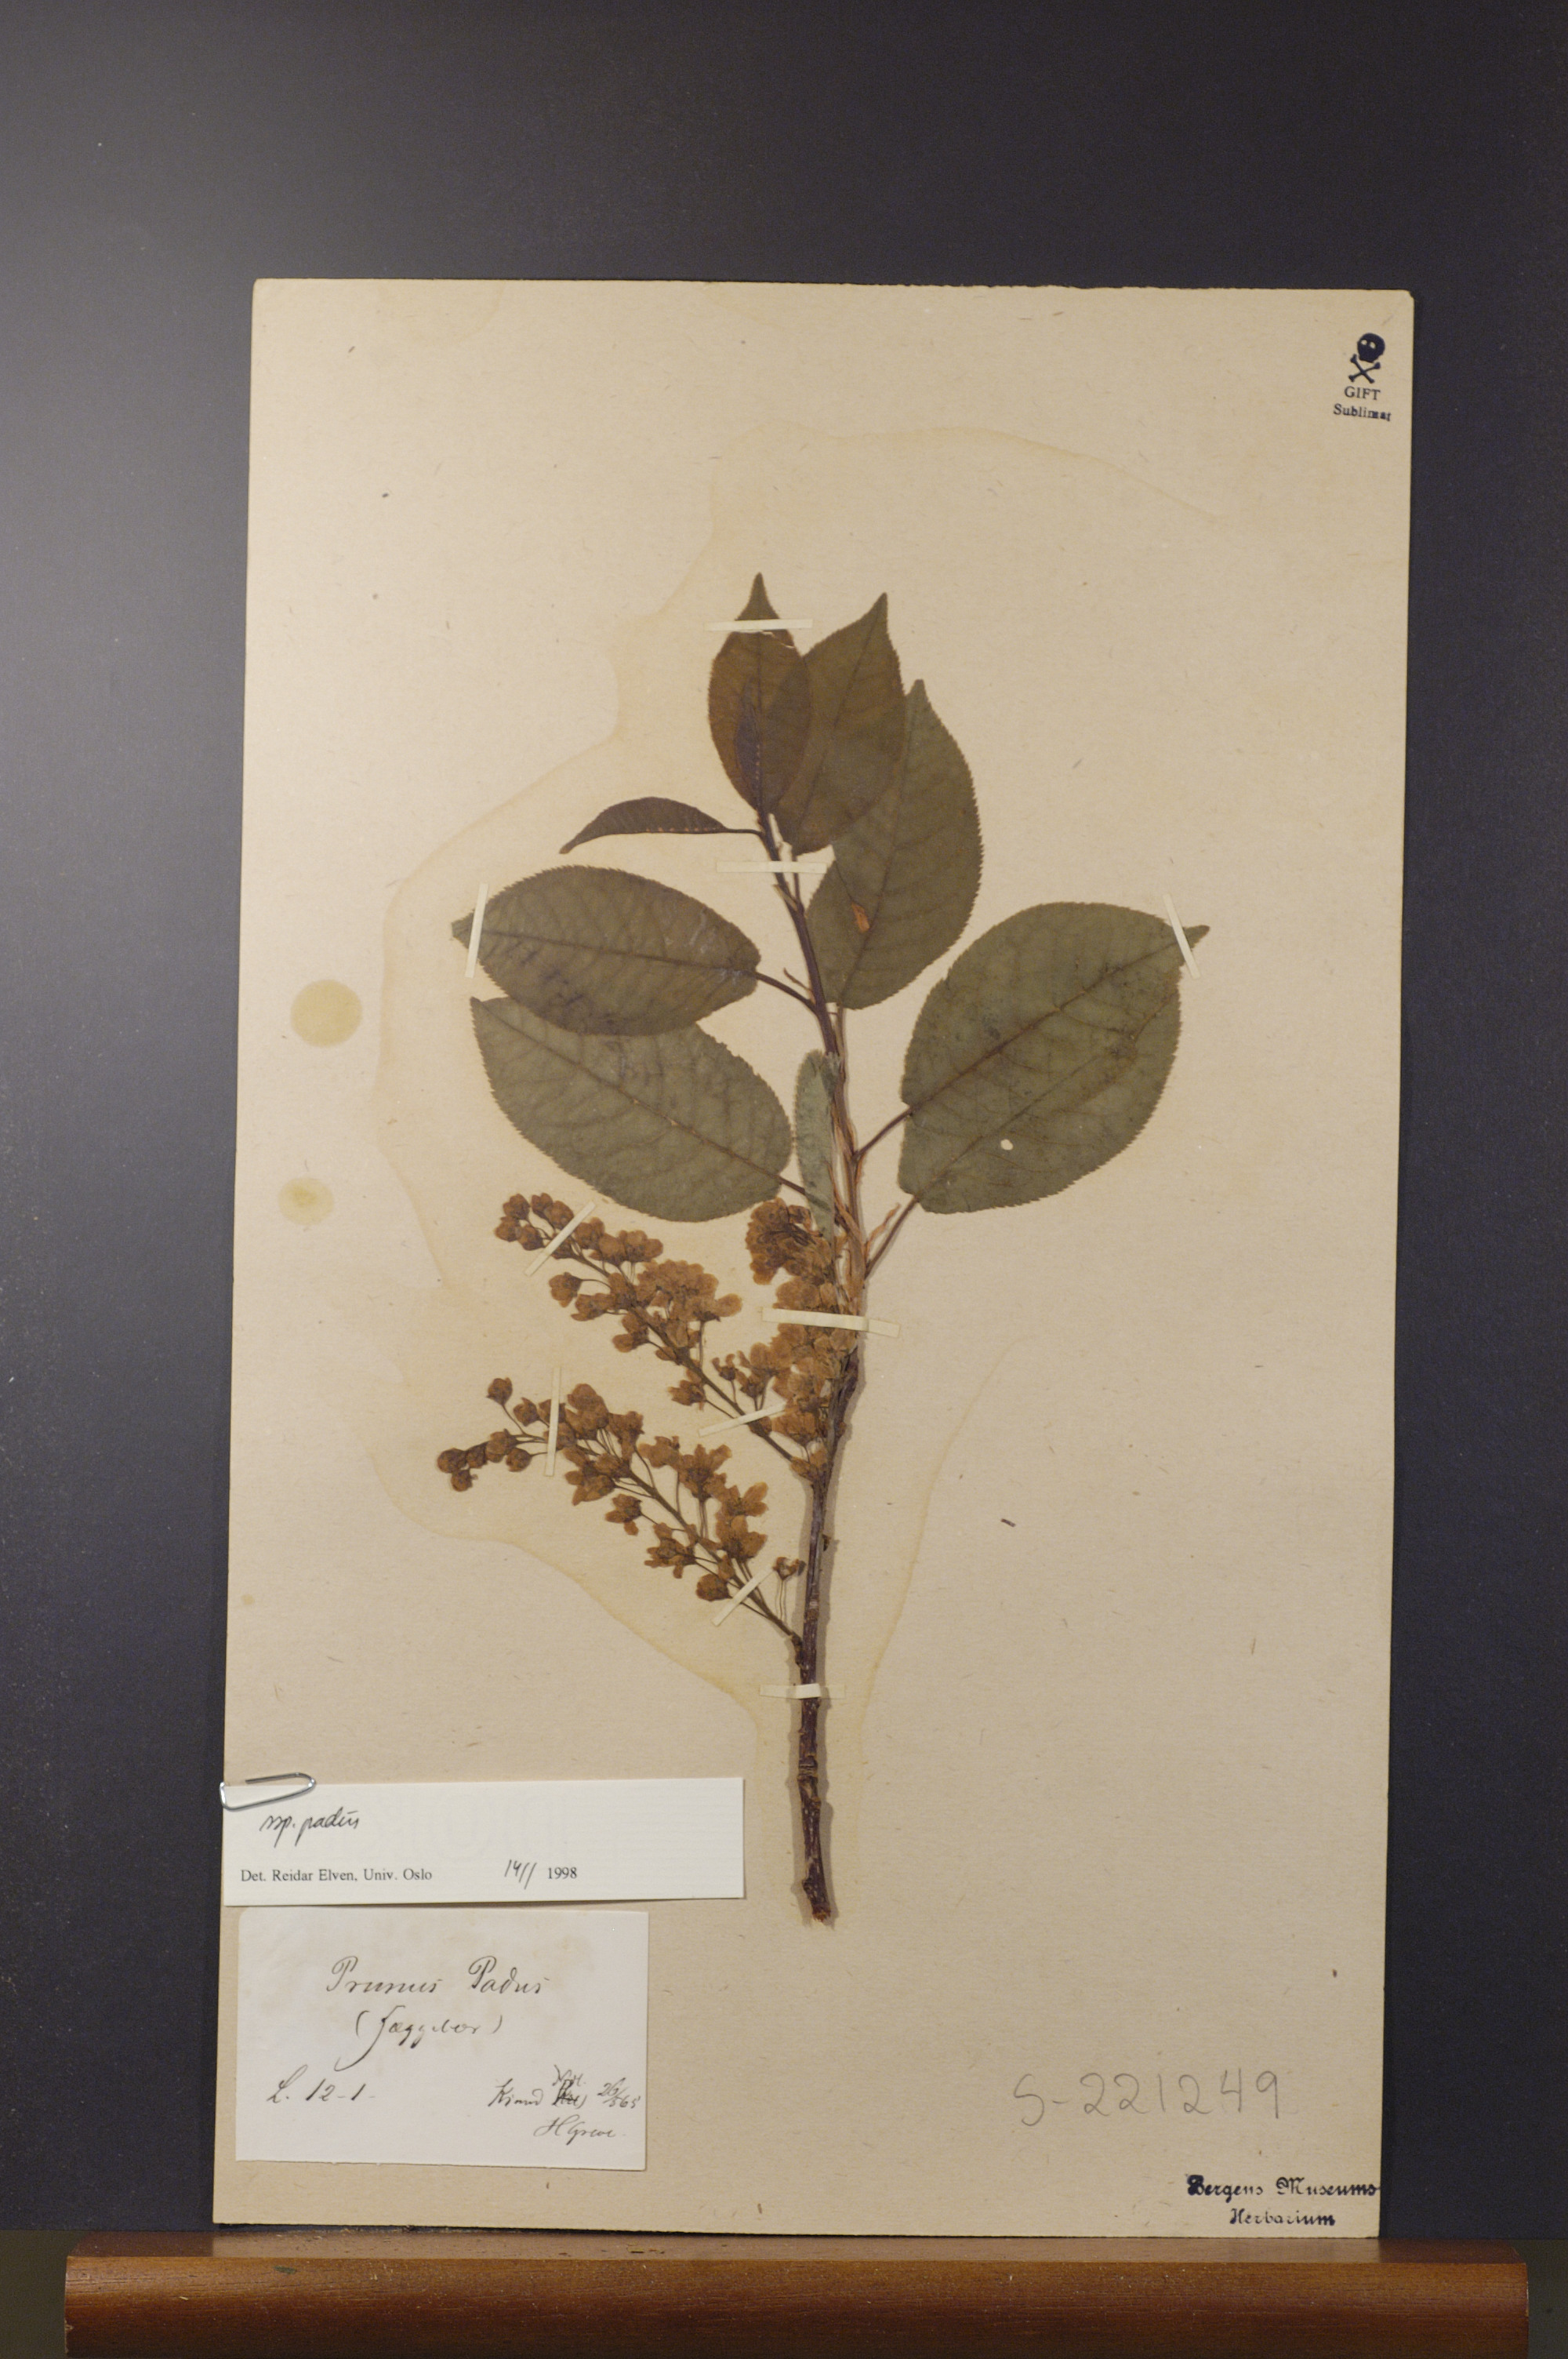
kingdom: Plantae
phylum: Tracheophyta
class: Magnoliopsida
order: Rosales
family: Rosaceae
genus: Prunus
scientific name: Prunus padus
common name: Bird cherry
